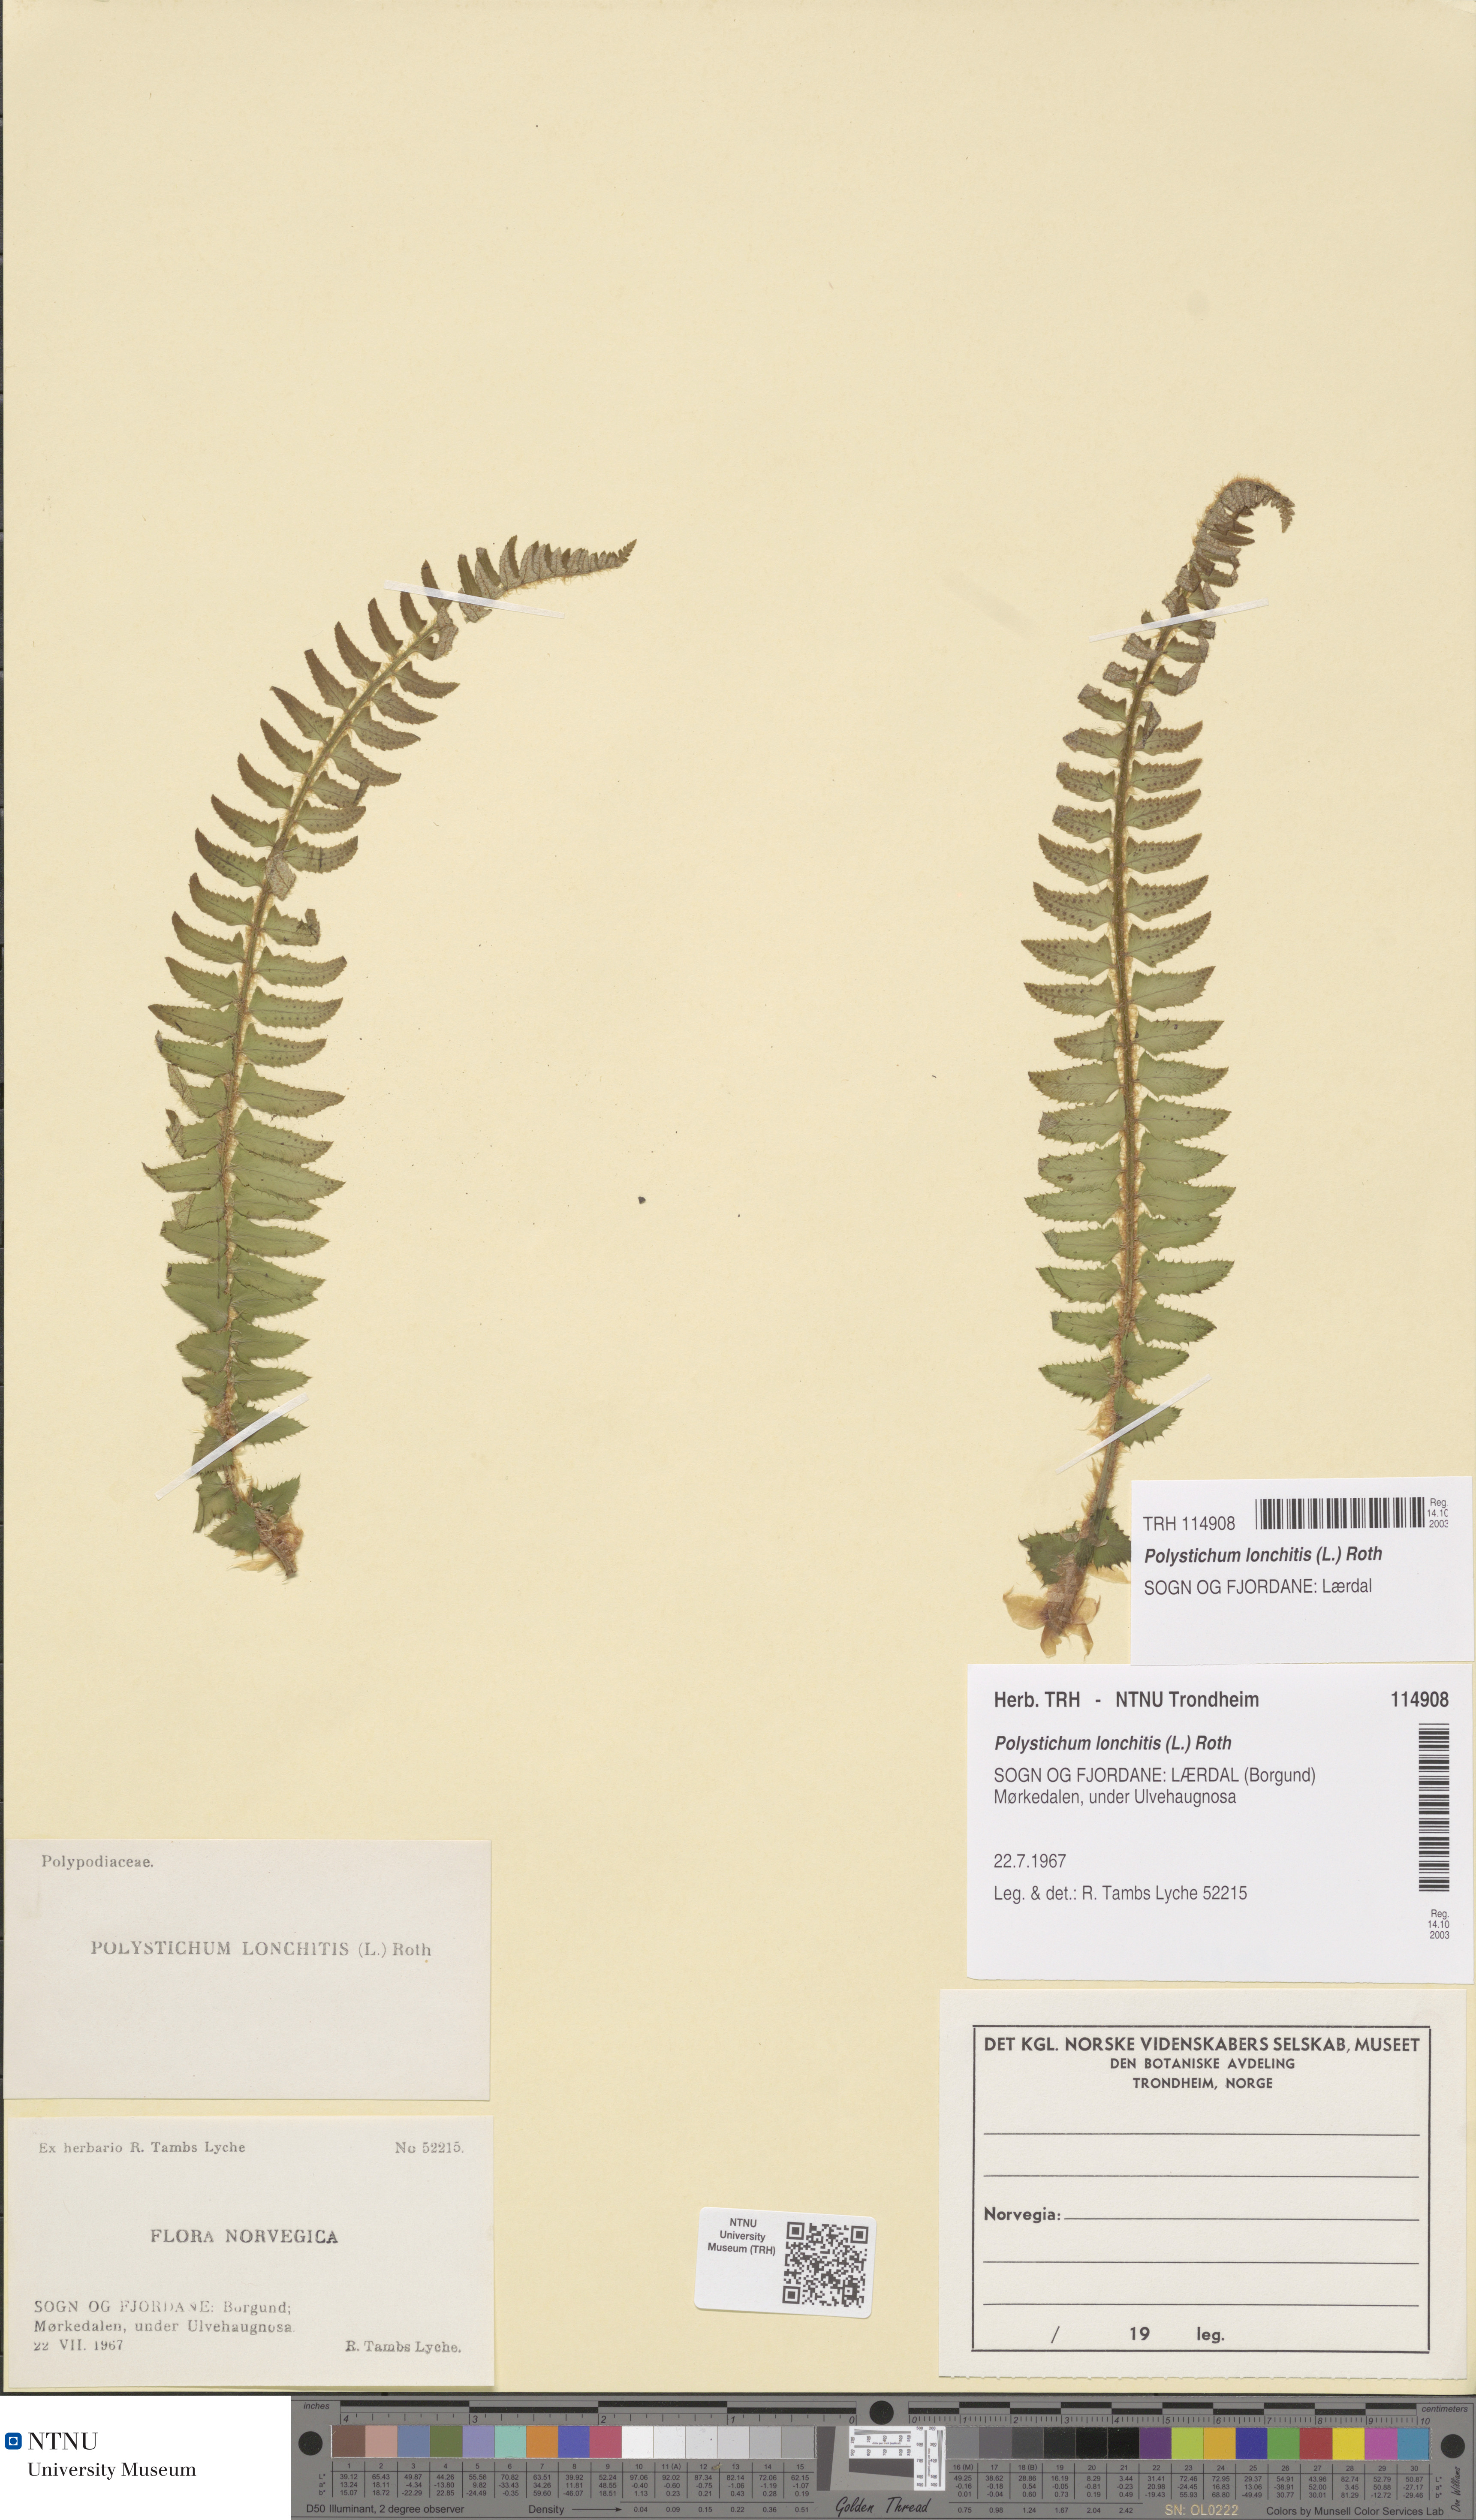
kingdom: Plantae
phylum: Tracheophyta
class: Polypodiopsida
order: Polypodiales
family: Dryopteridaceae
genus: Polystichum
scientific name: Polystichum lonchitis
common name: Holly fern
